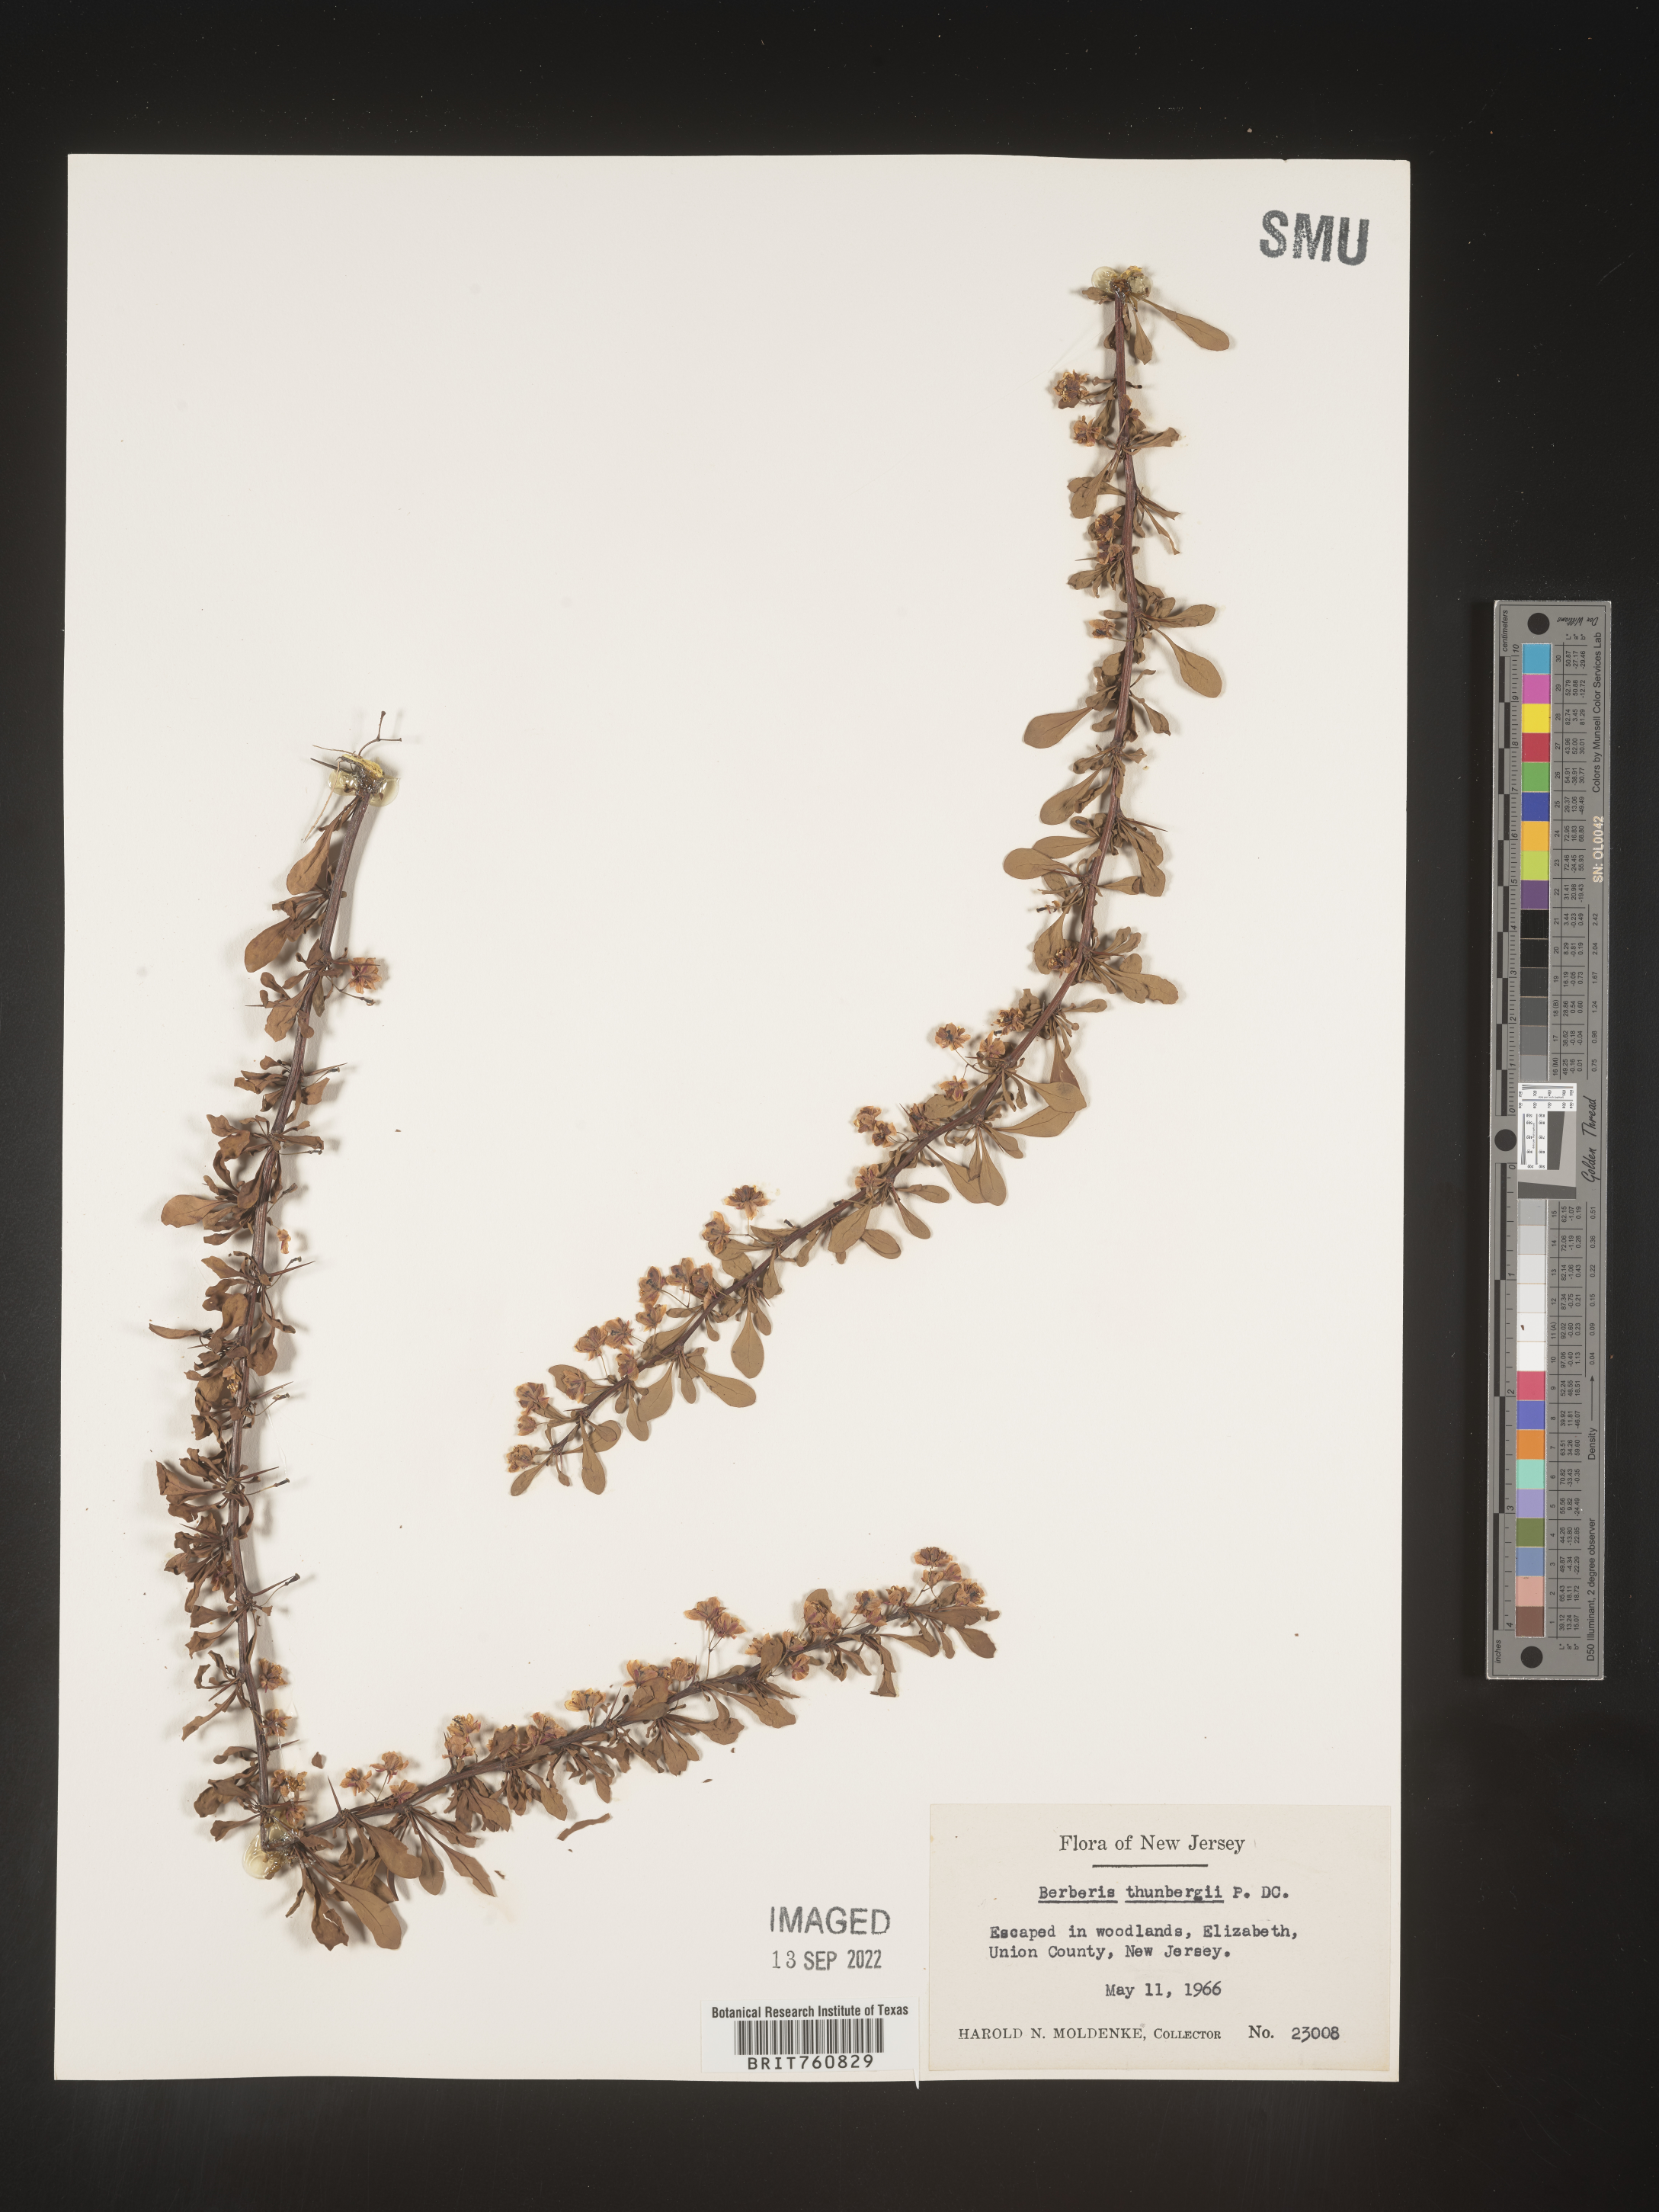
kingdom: Plantae
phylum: Tracheophyta
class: Magnoliopsida
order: Ranunculales
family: Berberidaceae
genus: Berberis
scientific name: Berberis
